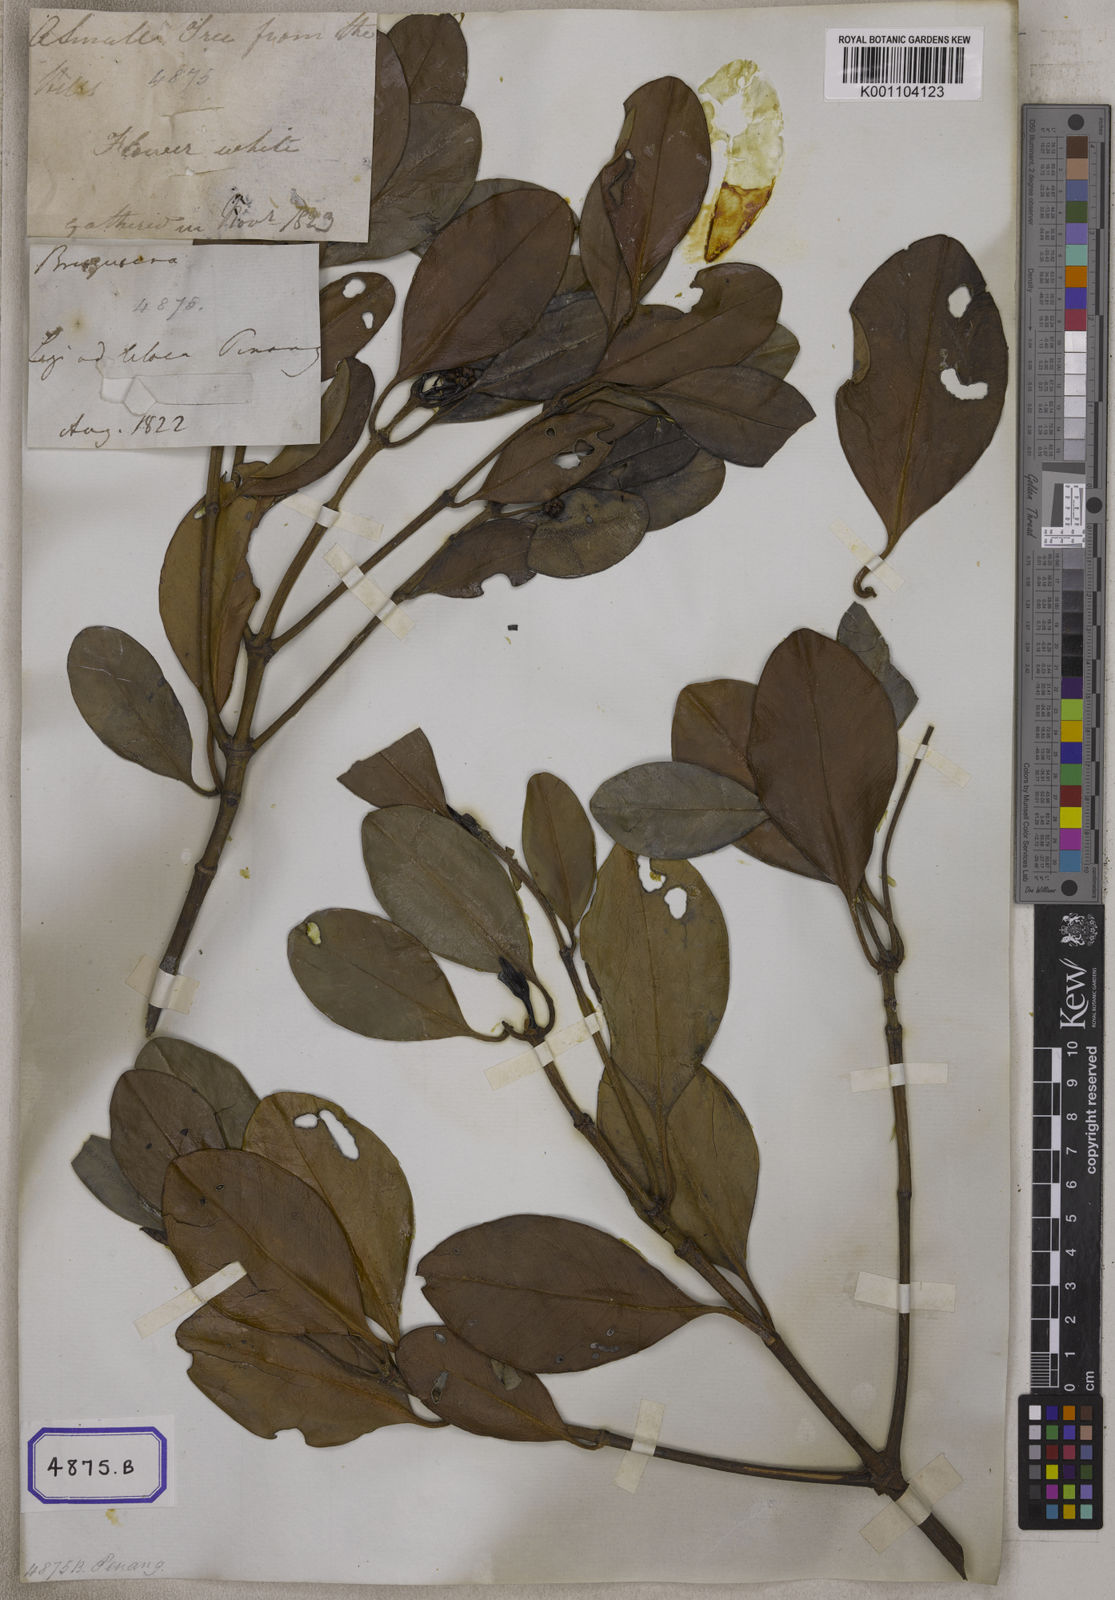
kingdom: Plantae
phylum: Tracheophyta
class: Magnoliopsida
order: Malpighiales
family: Rhizophoraceae
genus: Rhizophora
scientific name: Rhizophora
